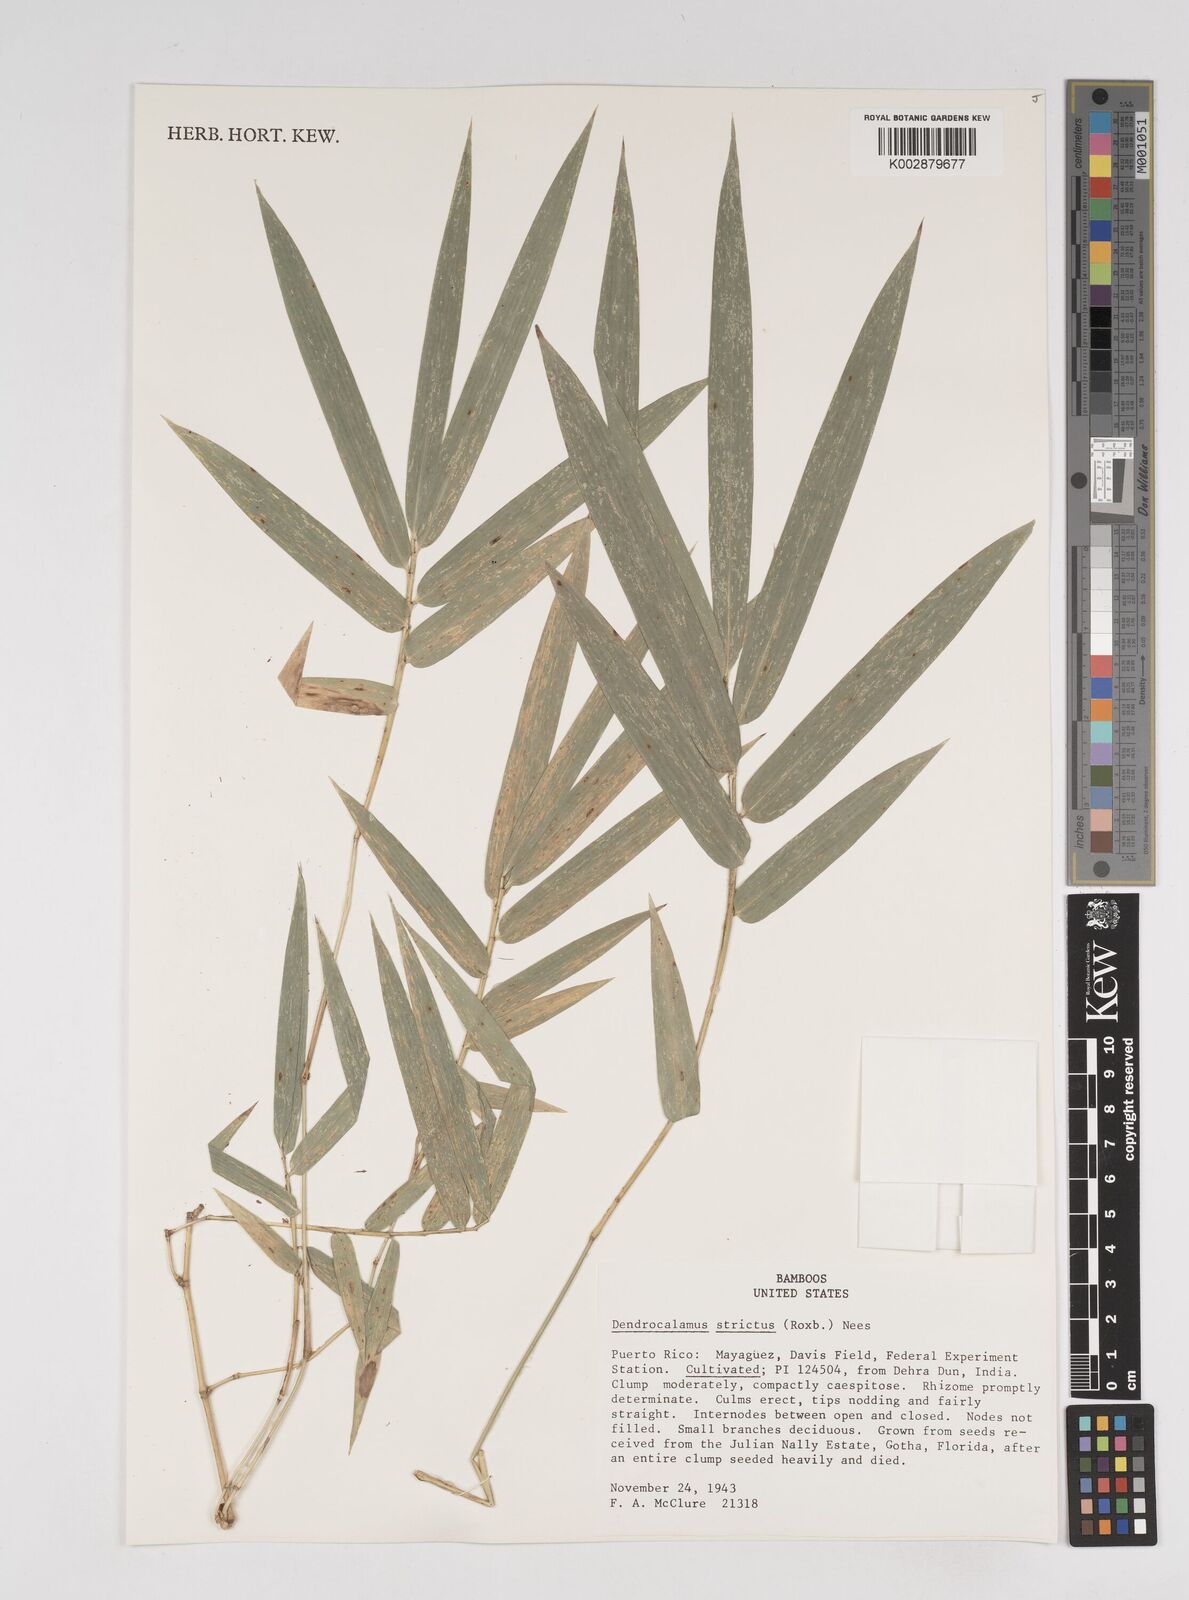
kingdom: Plantae
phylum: Tracheophyta
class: Liliopsida
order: Poales
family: Poaceae
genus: Dendrocalamus
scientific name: Dendrocalamus strictus
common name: Male bamboo
